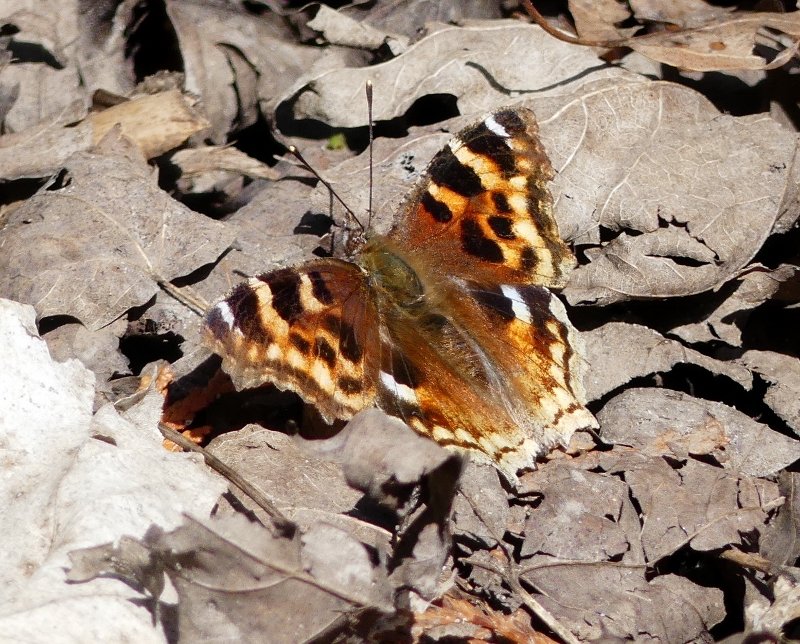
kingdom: Animalia
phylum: Arthropoda
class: Insecta
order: Lepidoptera
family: Nymphalidae
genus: Polygonia
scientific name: Polygonia vaualbum
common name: Compton Tortoiseshell
